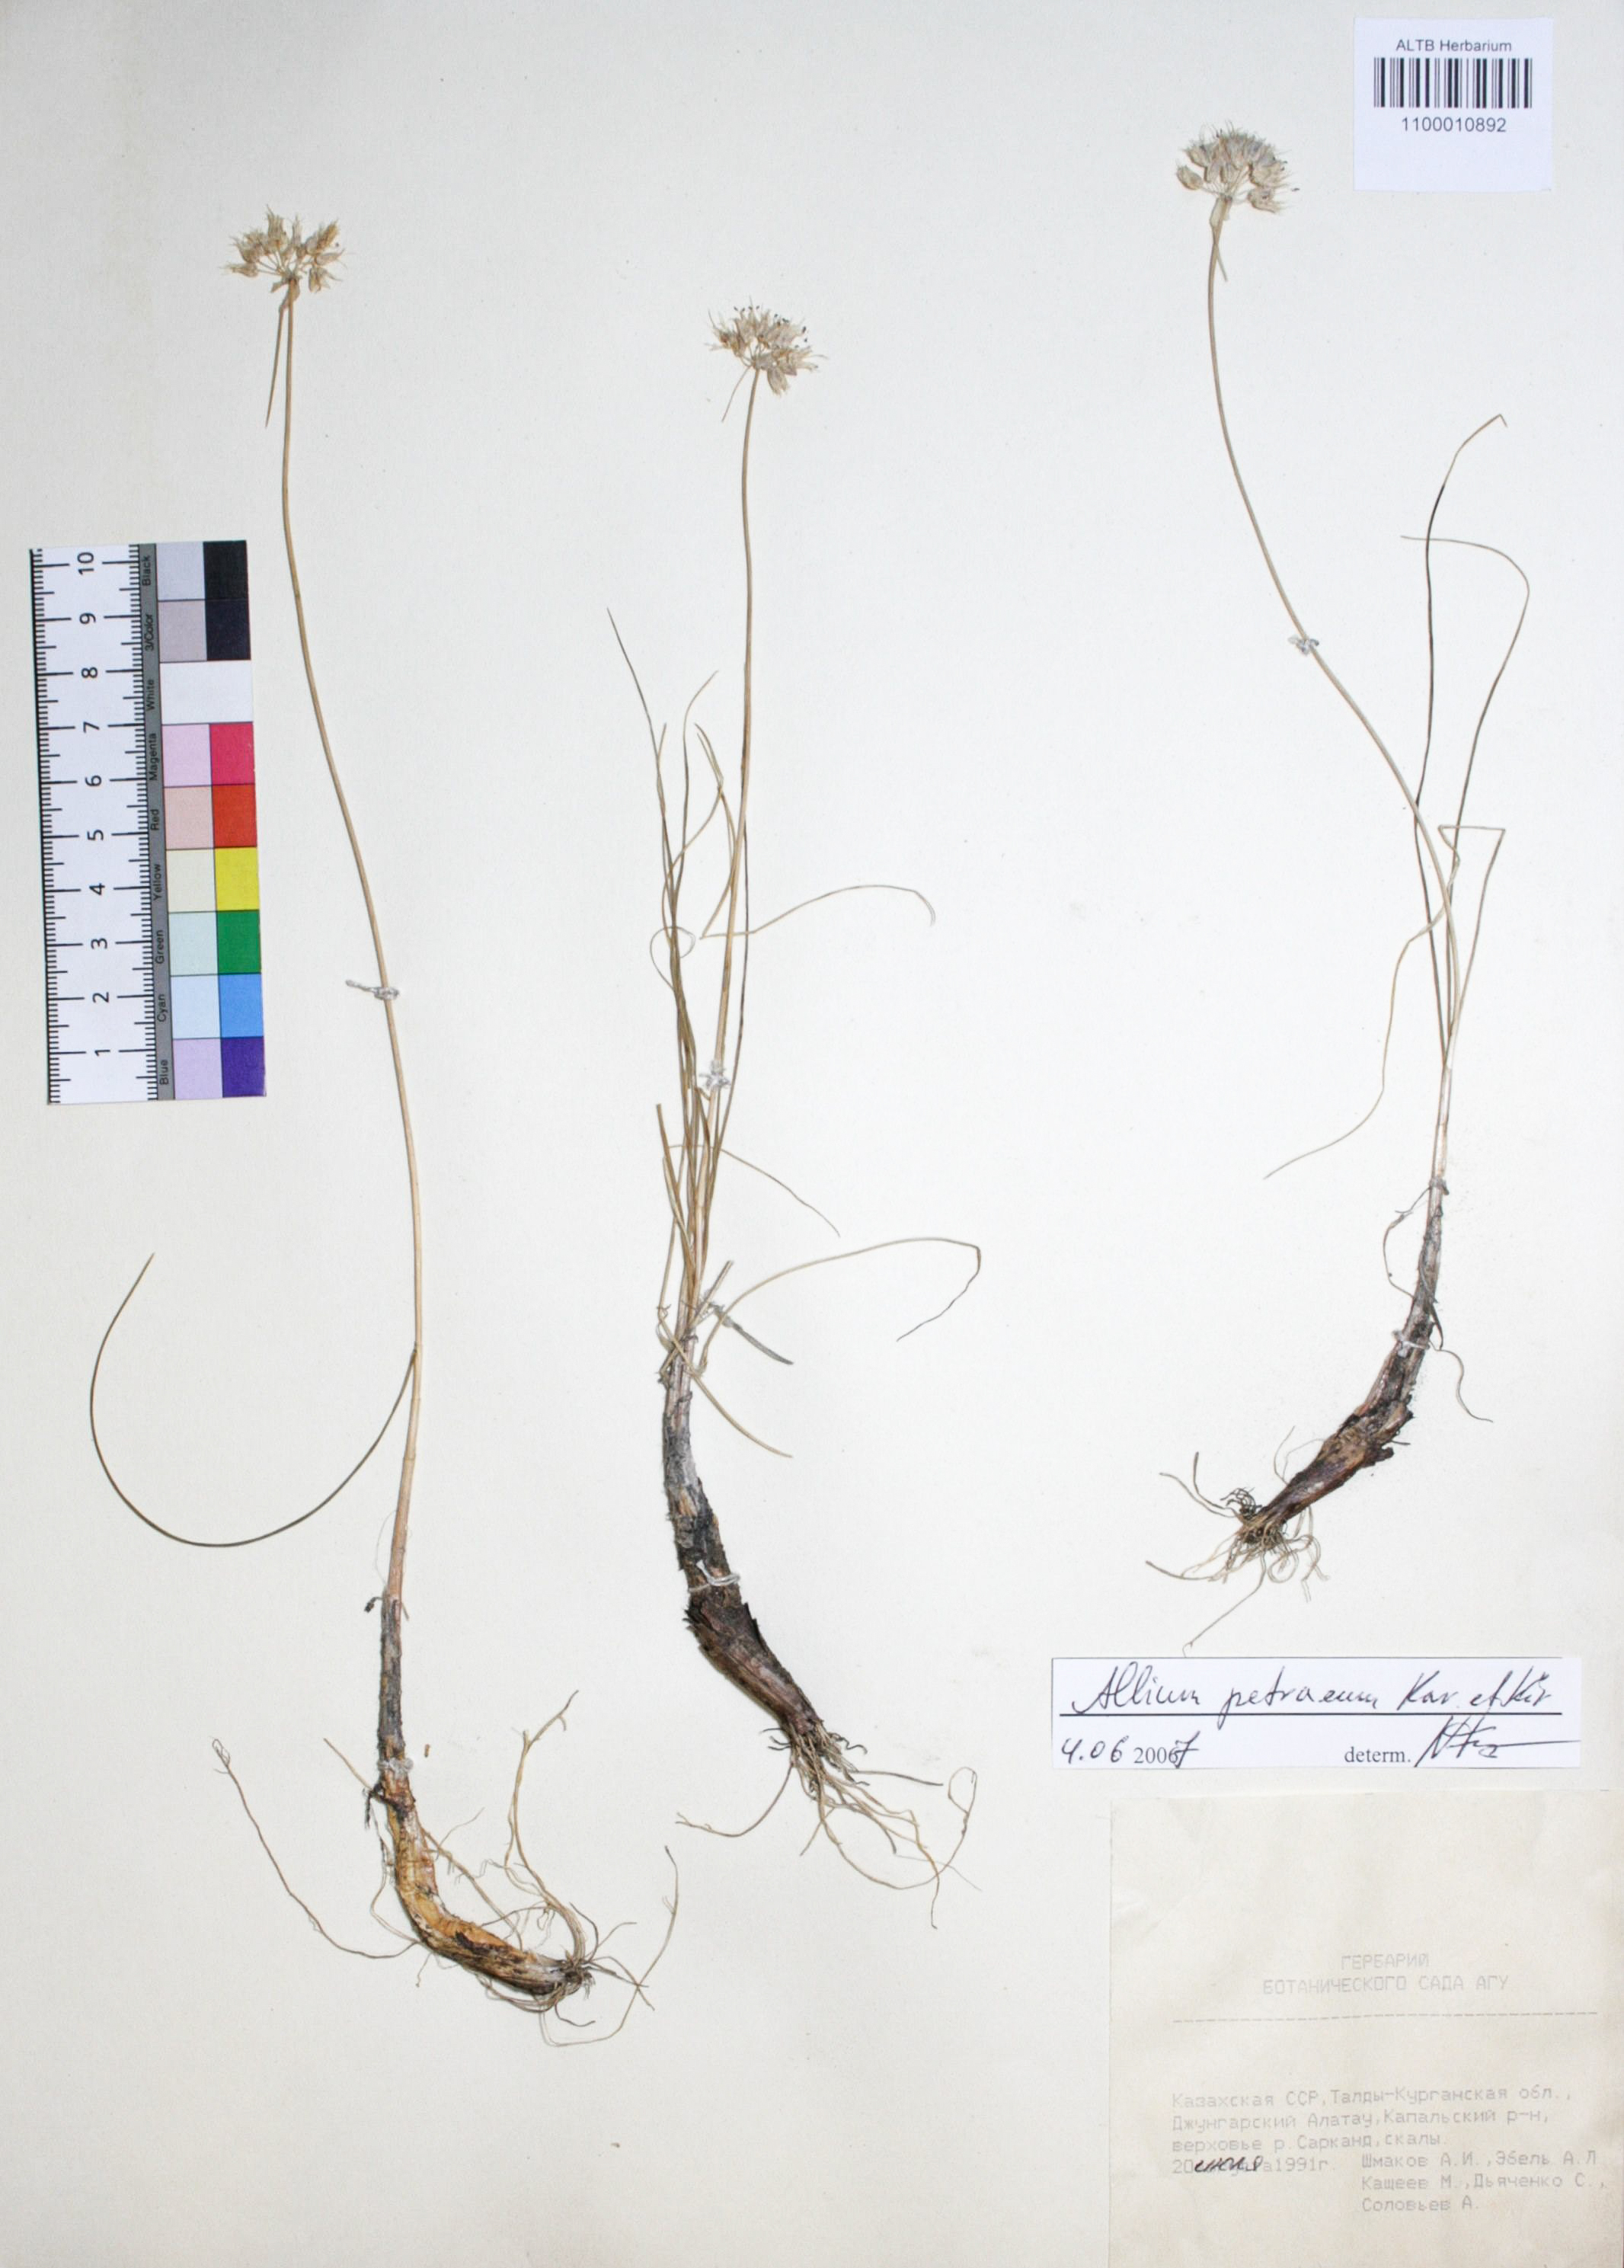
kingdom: Plantae
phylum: Tracheophyta
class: Liliopsida
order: Asparagales
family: Amaryllidaceae
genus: Allium
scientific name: Allium petraeum
